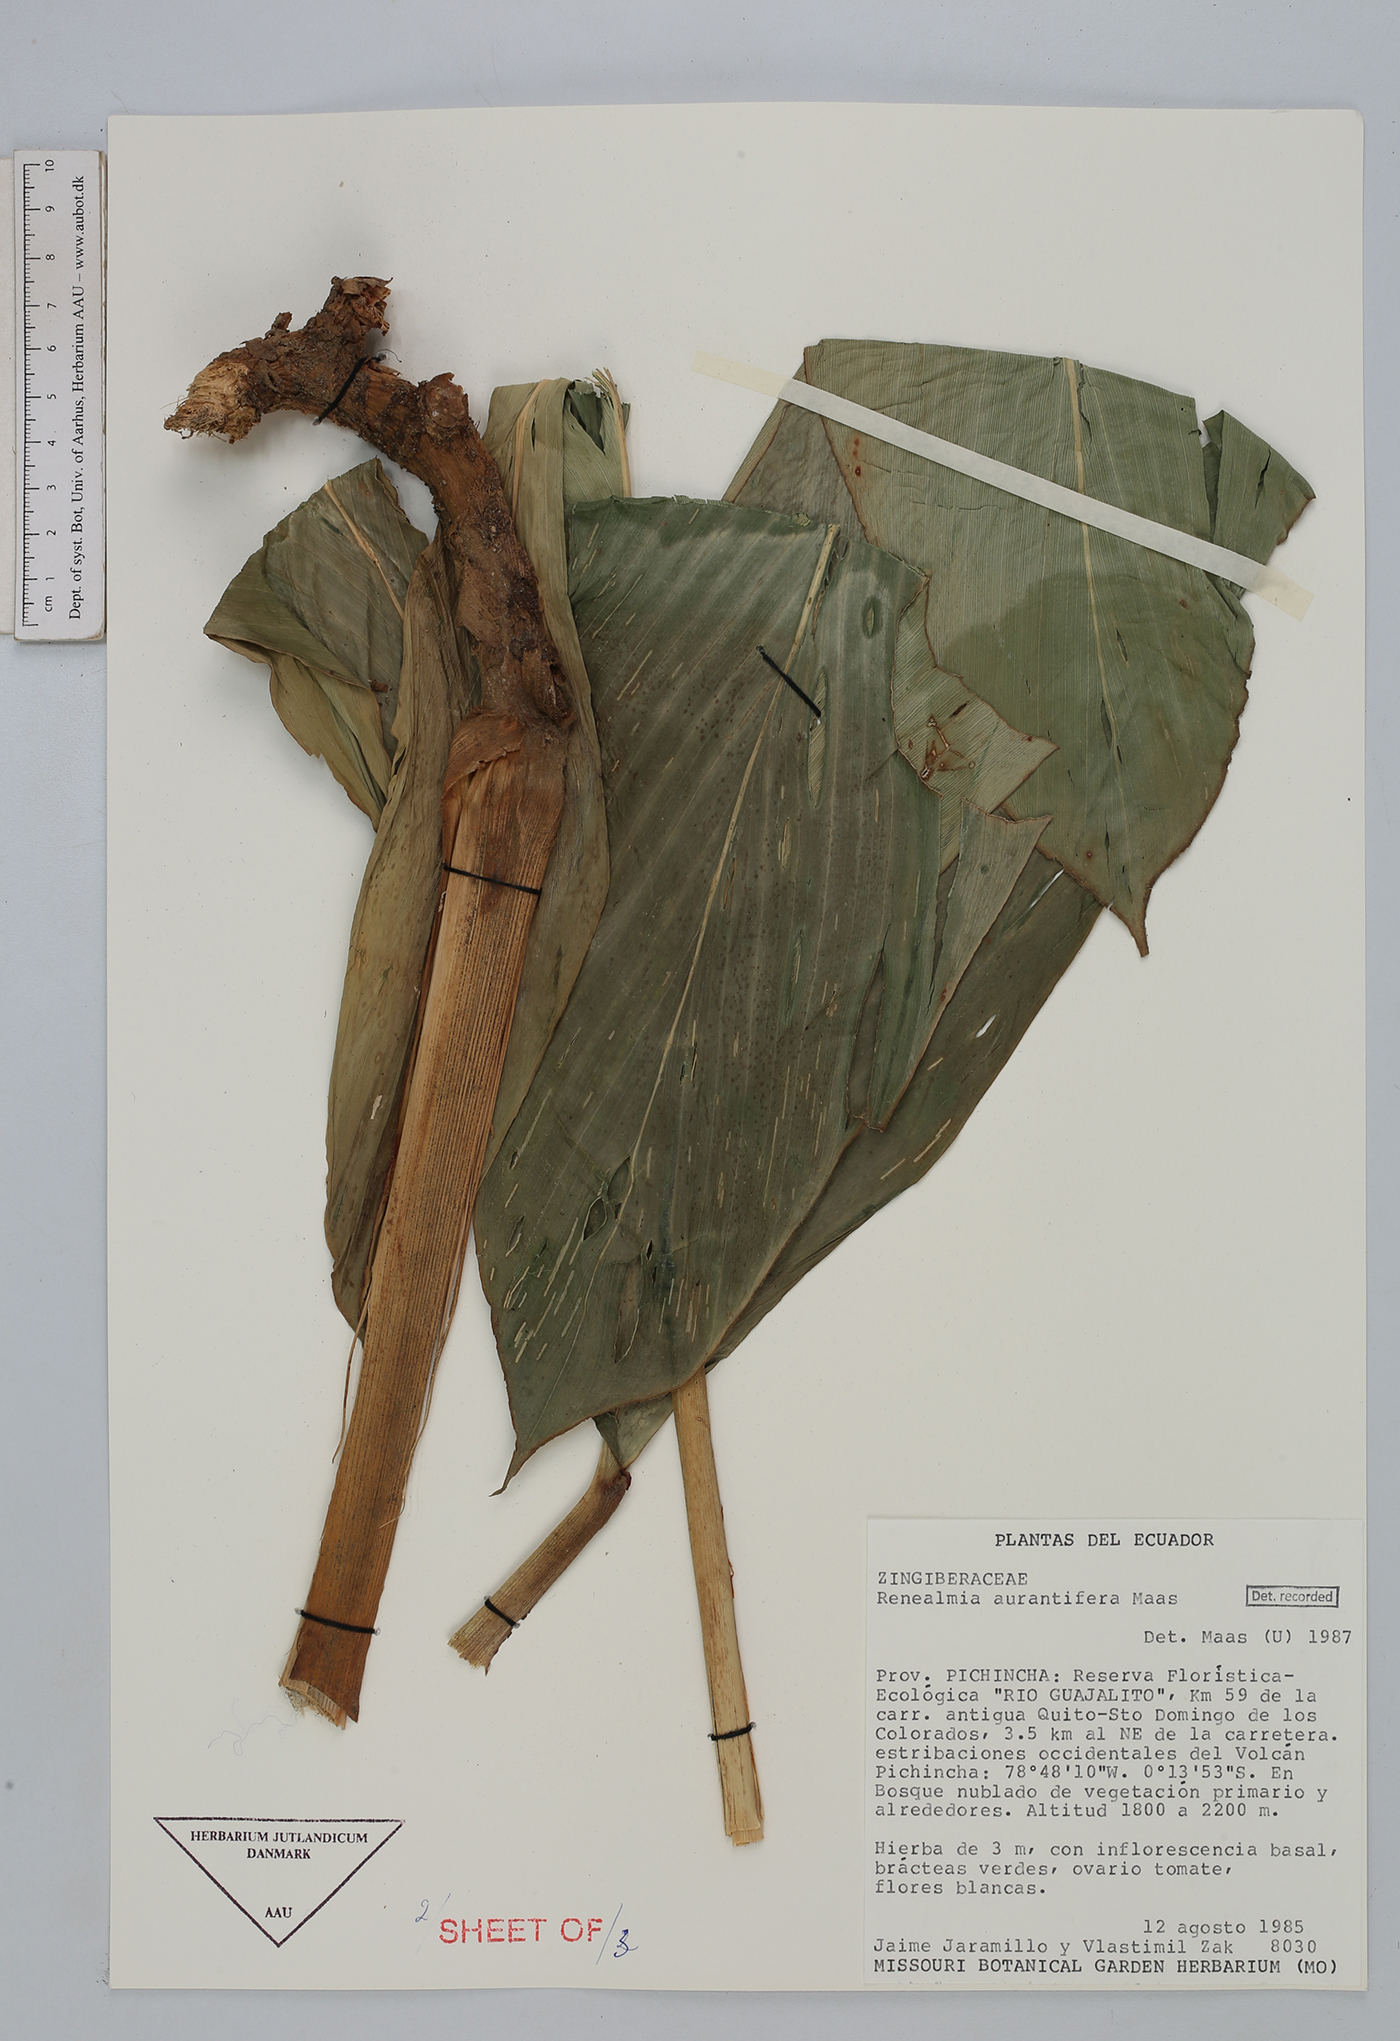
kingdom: Plantae
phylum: Tracheophyta
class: Liliopsida
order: Zingiberales
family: Zingiberaceae
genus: Renealmia
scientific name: Renealmia aurantiifera
